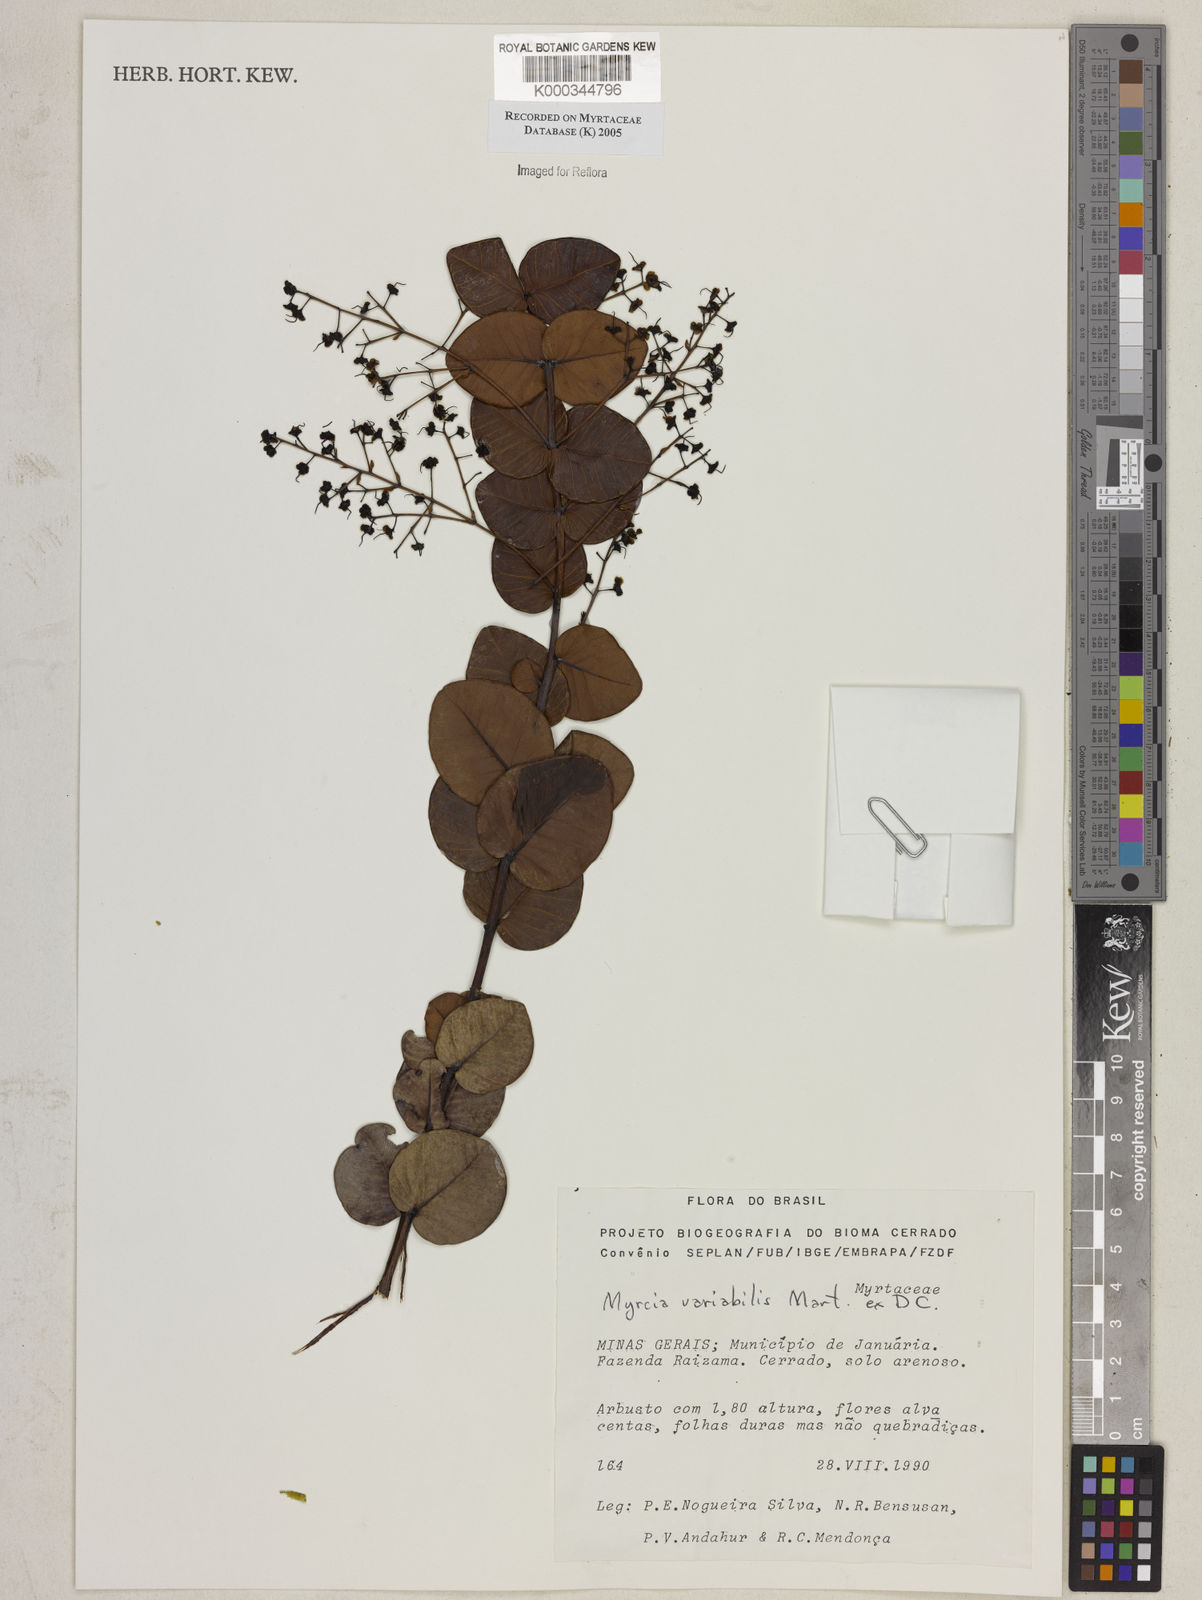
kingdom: Plantae
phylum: Tracheophyta
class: Magnoliopsida
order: Myrtales
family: Myrtaceae
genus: Myrcia
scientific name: Myrcia variabilis
